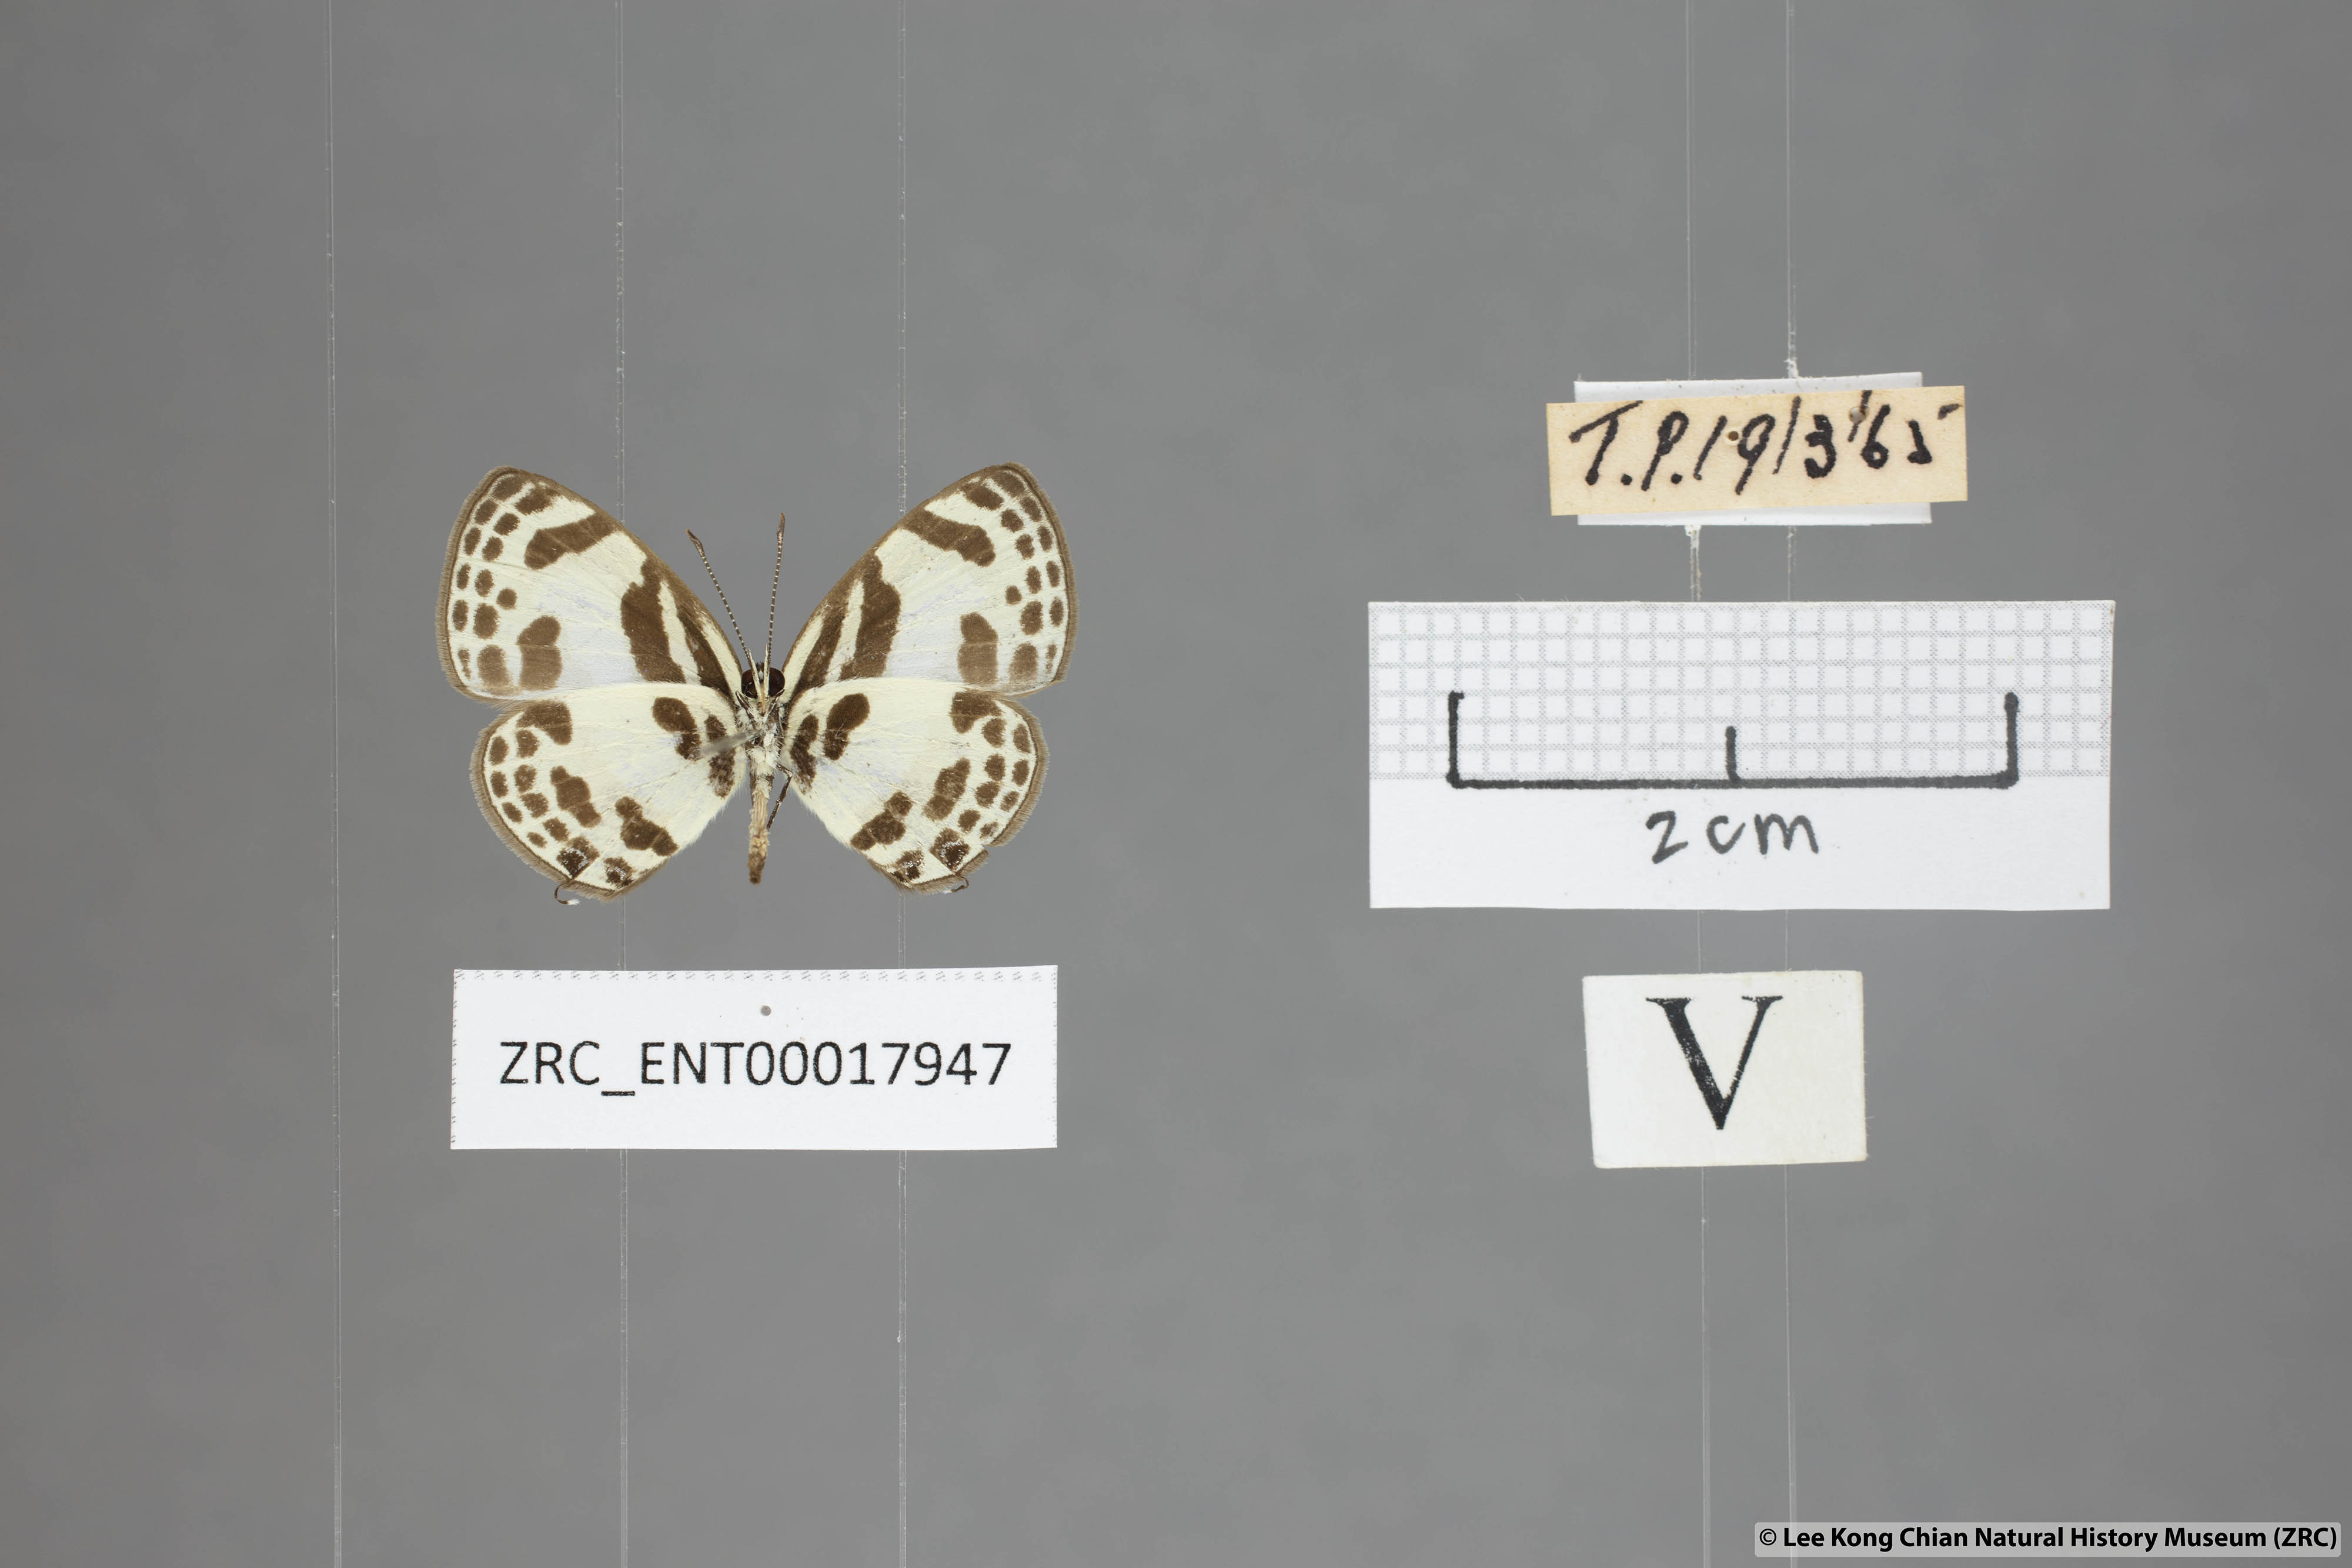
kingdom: Animalia
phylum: Arthropoda
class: Insecta
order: Lepidoptera
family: Lycaenidae
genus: Discolampa
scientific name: Discolampa ethion
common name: Banded blue pierrot
